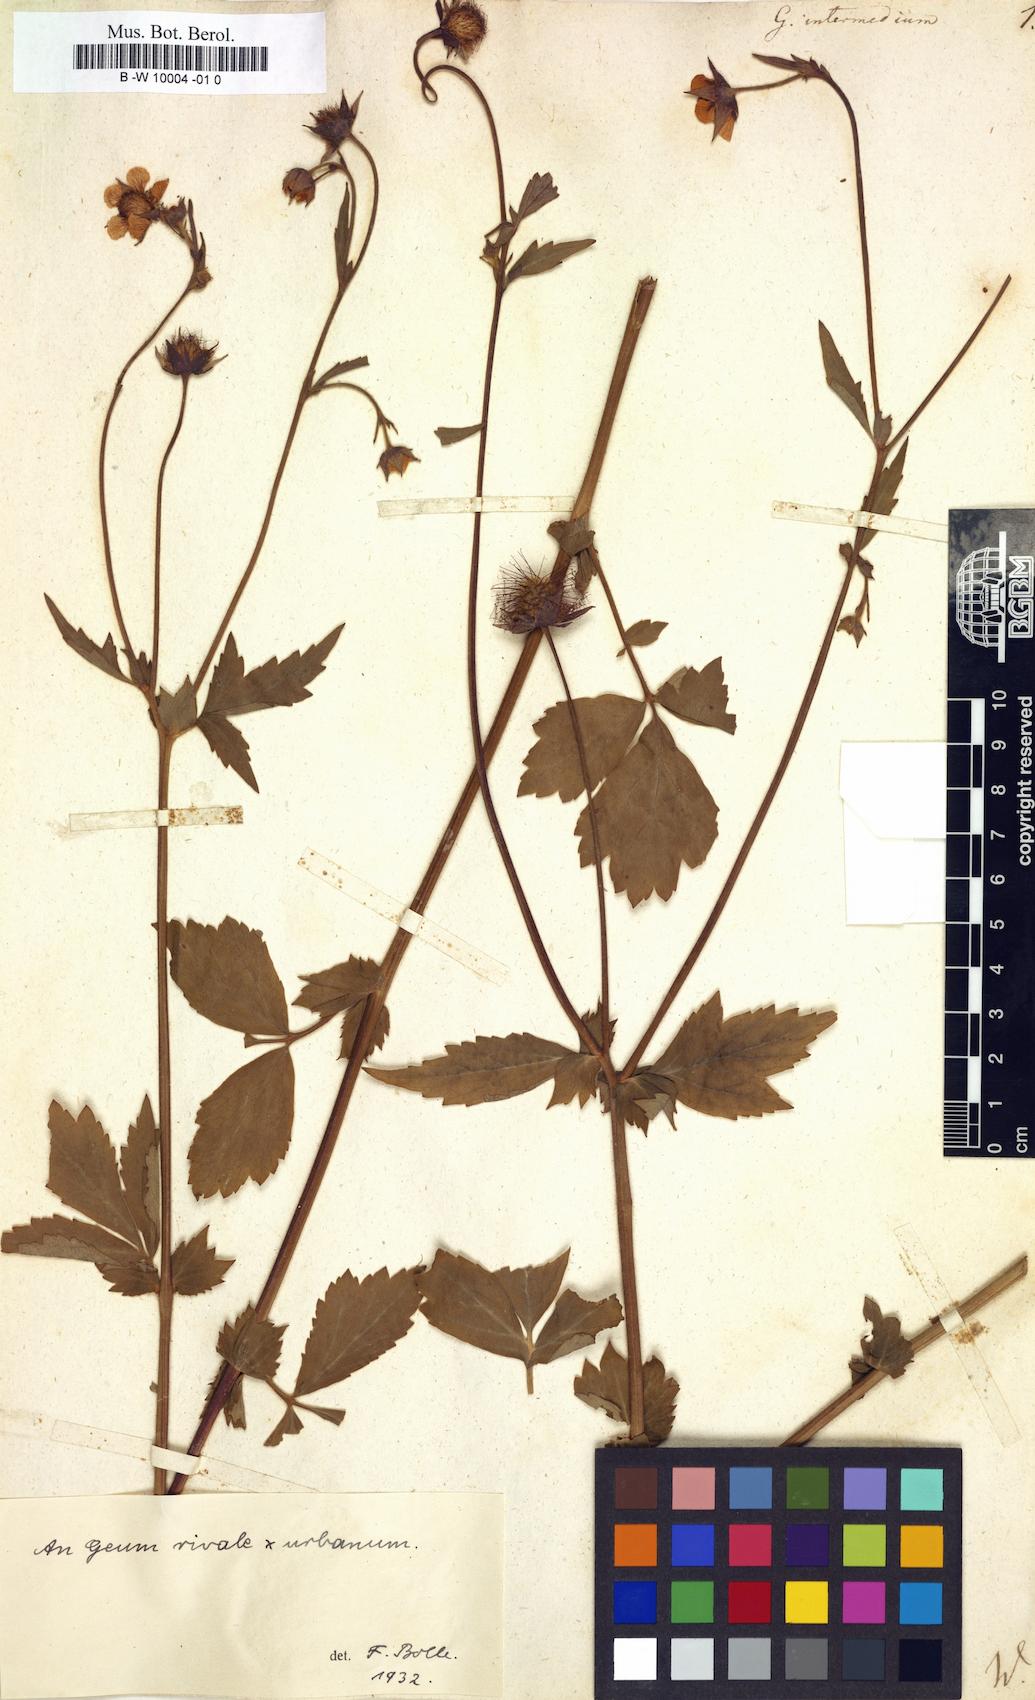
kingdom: Plantae
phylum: Tracheophyta
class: Magnoliopsida
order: Rosales
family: Rosaceae
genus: Geum
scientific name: Geum urbanum
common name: Wood avens
